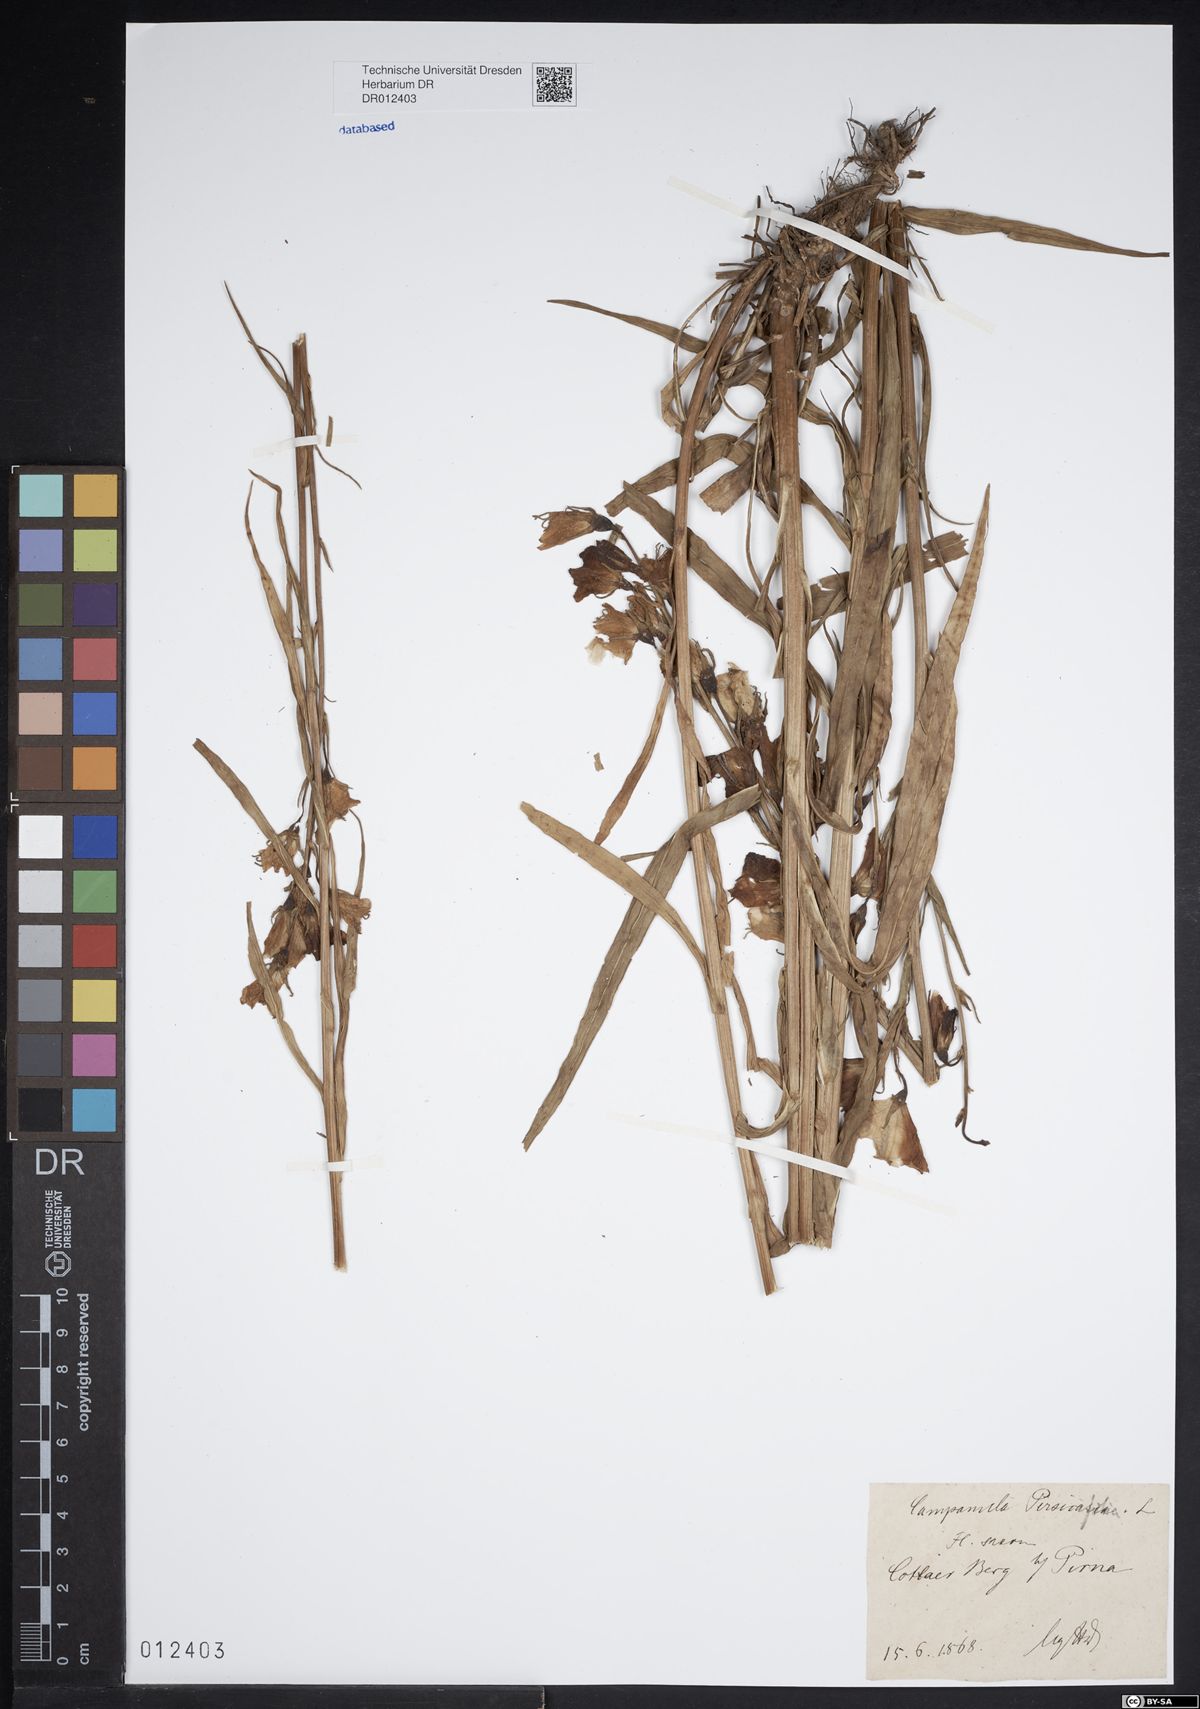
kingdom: Plantae
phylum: Tracheophyta
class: Magnoliopsida
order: Asterales
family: Campanulaceae
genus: Campanula
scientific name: Campanula persicifolia
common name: Peach-leaved bellflower
